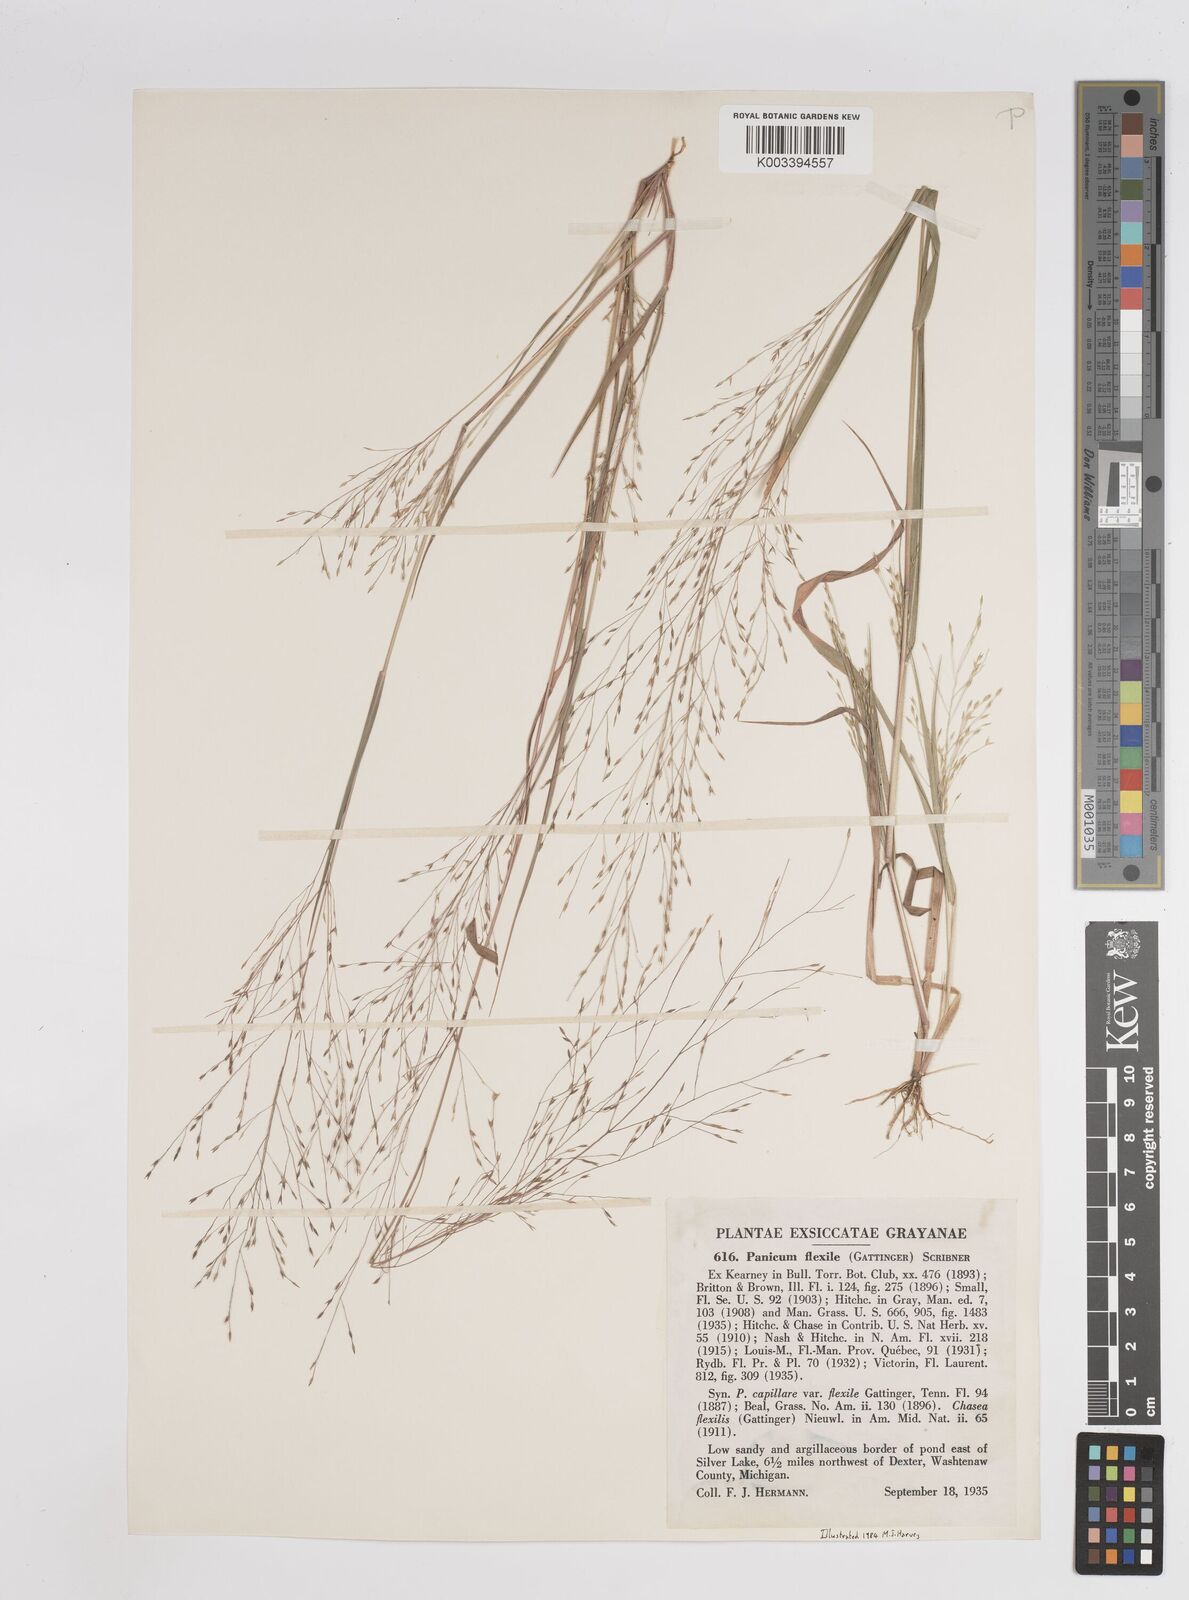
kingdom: Plantae
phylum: Tracheophyta
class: Liliopsida
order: Poales
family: Poaceae
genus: Panicum
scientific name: Panicum flexile
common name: Wiry panicgrass
